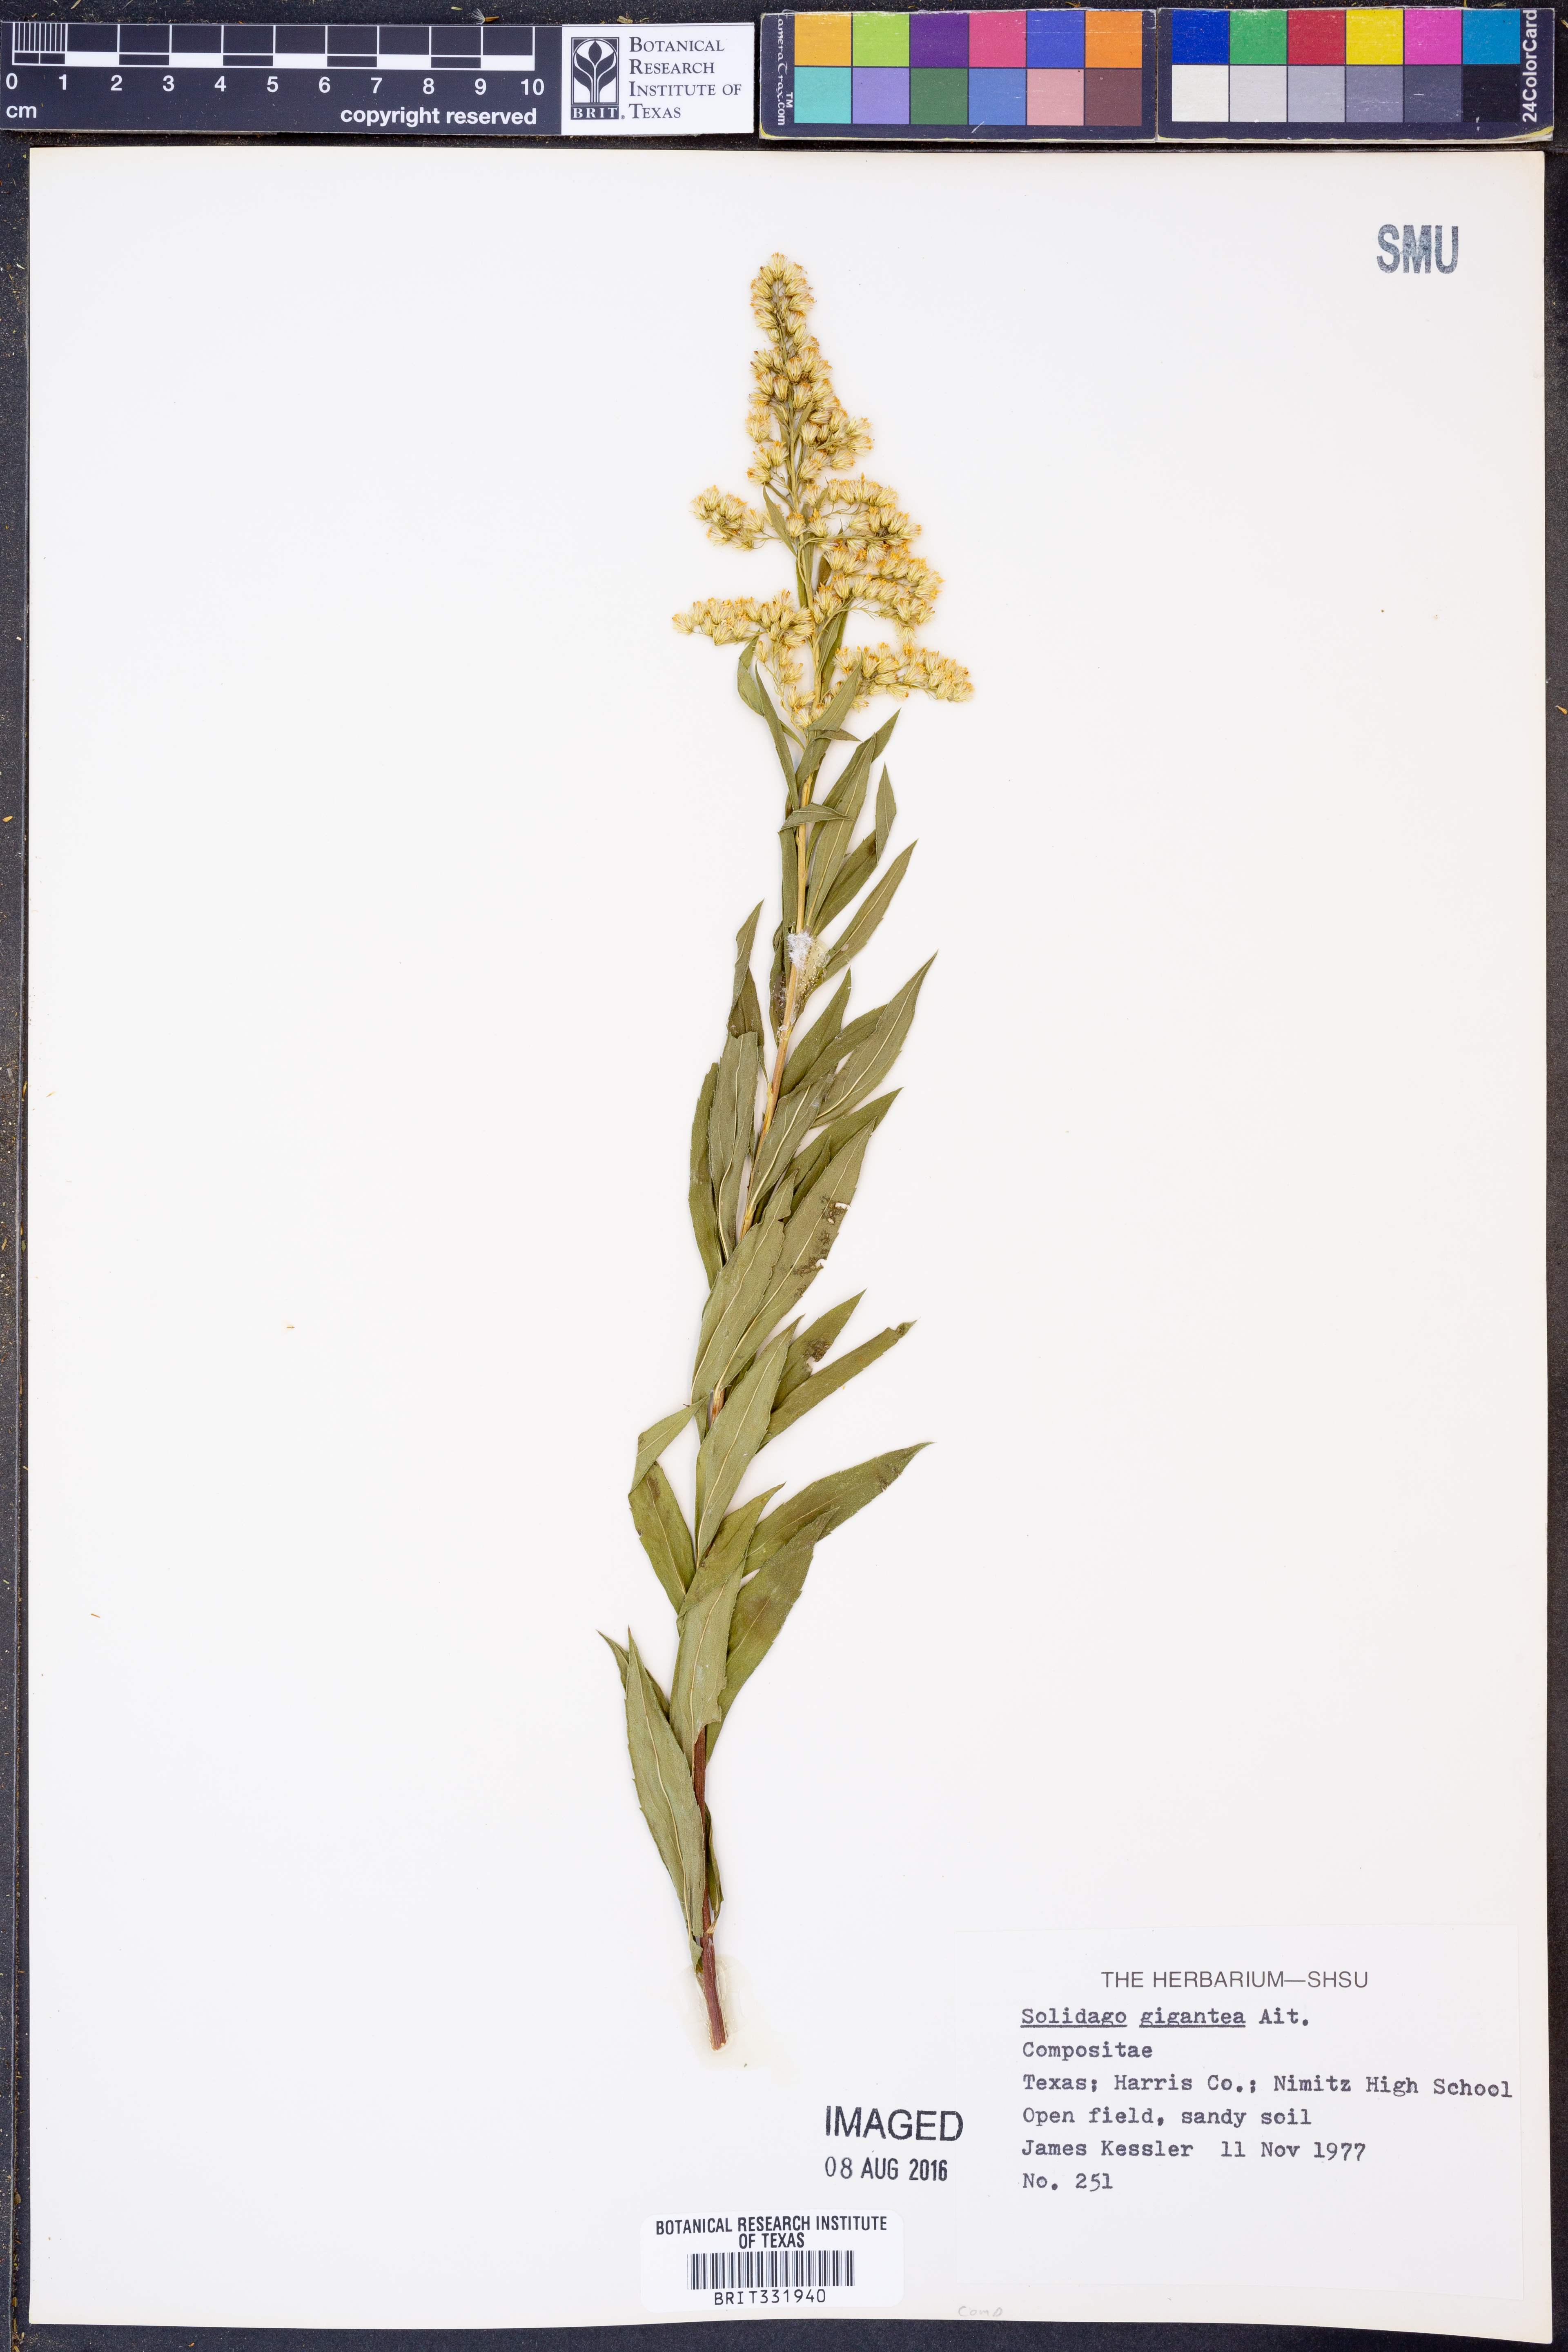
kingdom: Plantae
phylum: Tracheophyta
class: Magnoliopsida
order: Asterales
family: Asteraceae
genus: Solidago
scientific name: Solidago gigantea
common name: Giant goldenrod
